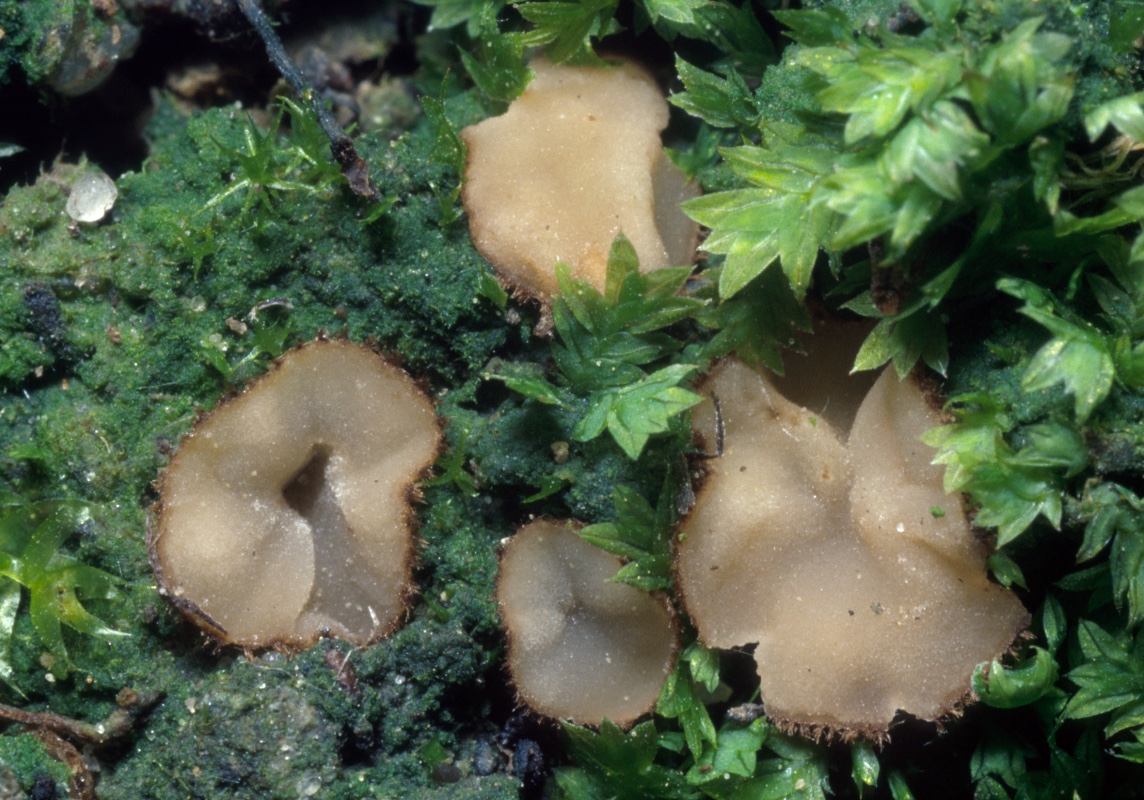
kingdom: Fungi
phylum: Ascomycota
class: Pezizomycetes
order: Pezizales
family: Pyronemataceae
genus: Tricharina
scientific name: Tricharina gilva
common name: gullig børstebæger
